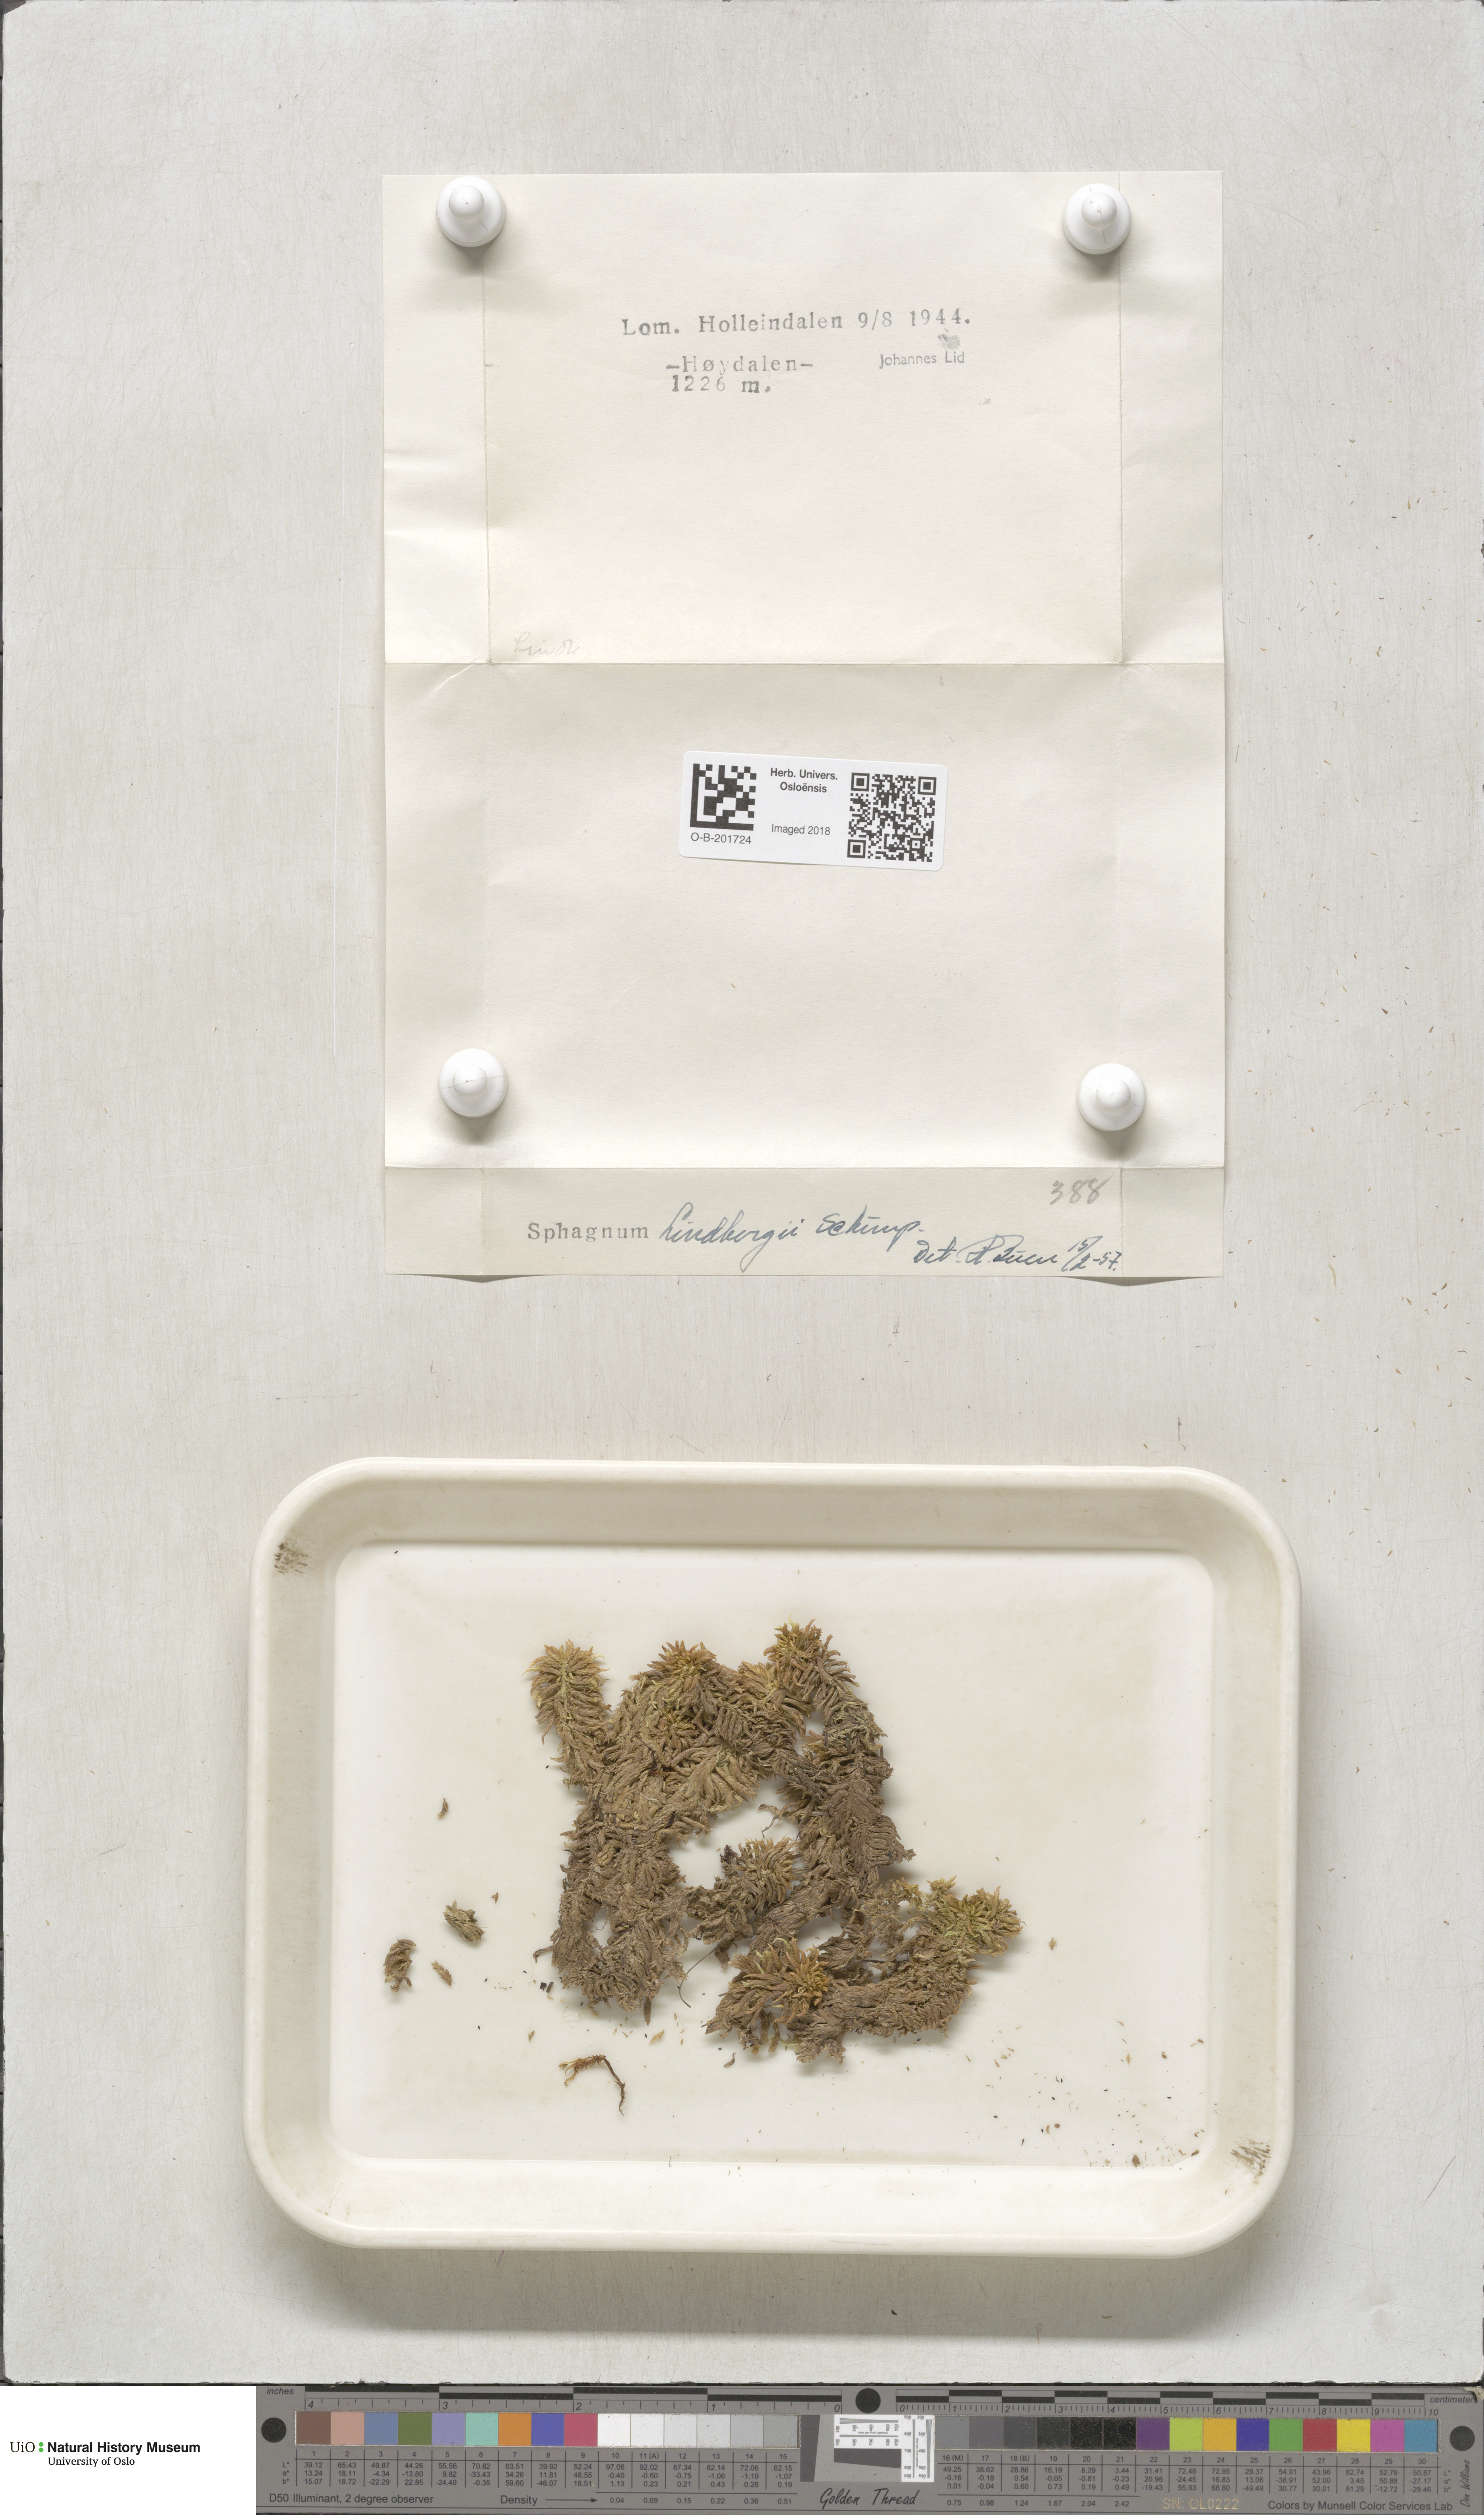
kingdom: Plantae
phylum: Bryophyta
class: Sphagnopsida
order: Sphagnales
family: Sphagnaceae
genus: Sphagnum
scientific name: Sphagnum lindbergii
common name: Lindberg's peat moss
